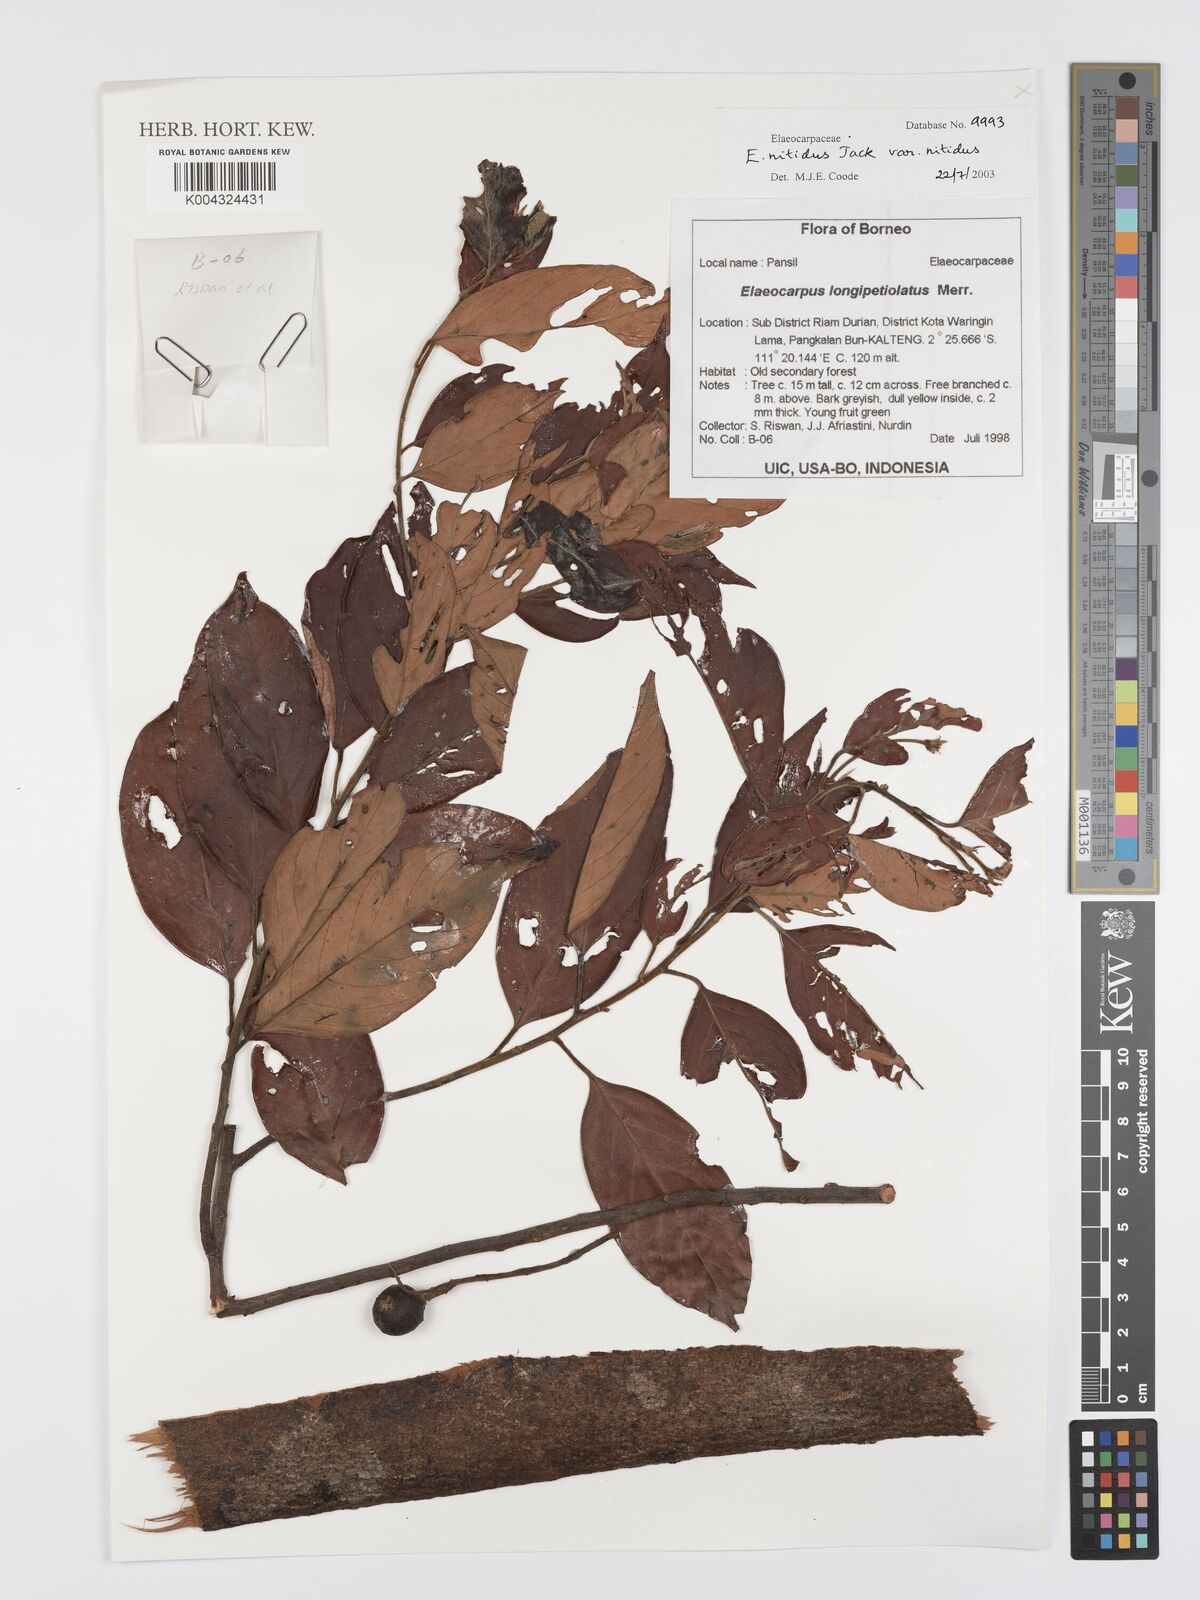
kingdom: Plantae
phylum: Tracheophyta
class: Magnoliopsida
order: Oxalidales
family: Elaeocarpaceae
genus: Elaeocarpus
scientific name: Elaeocarpus nitidus
